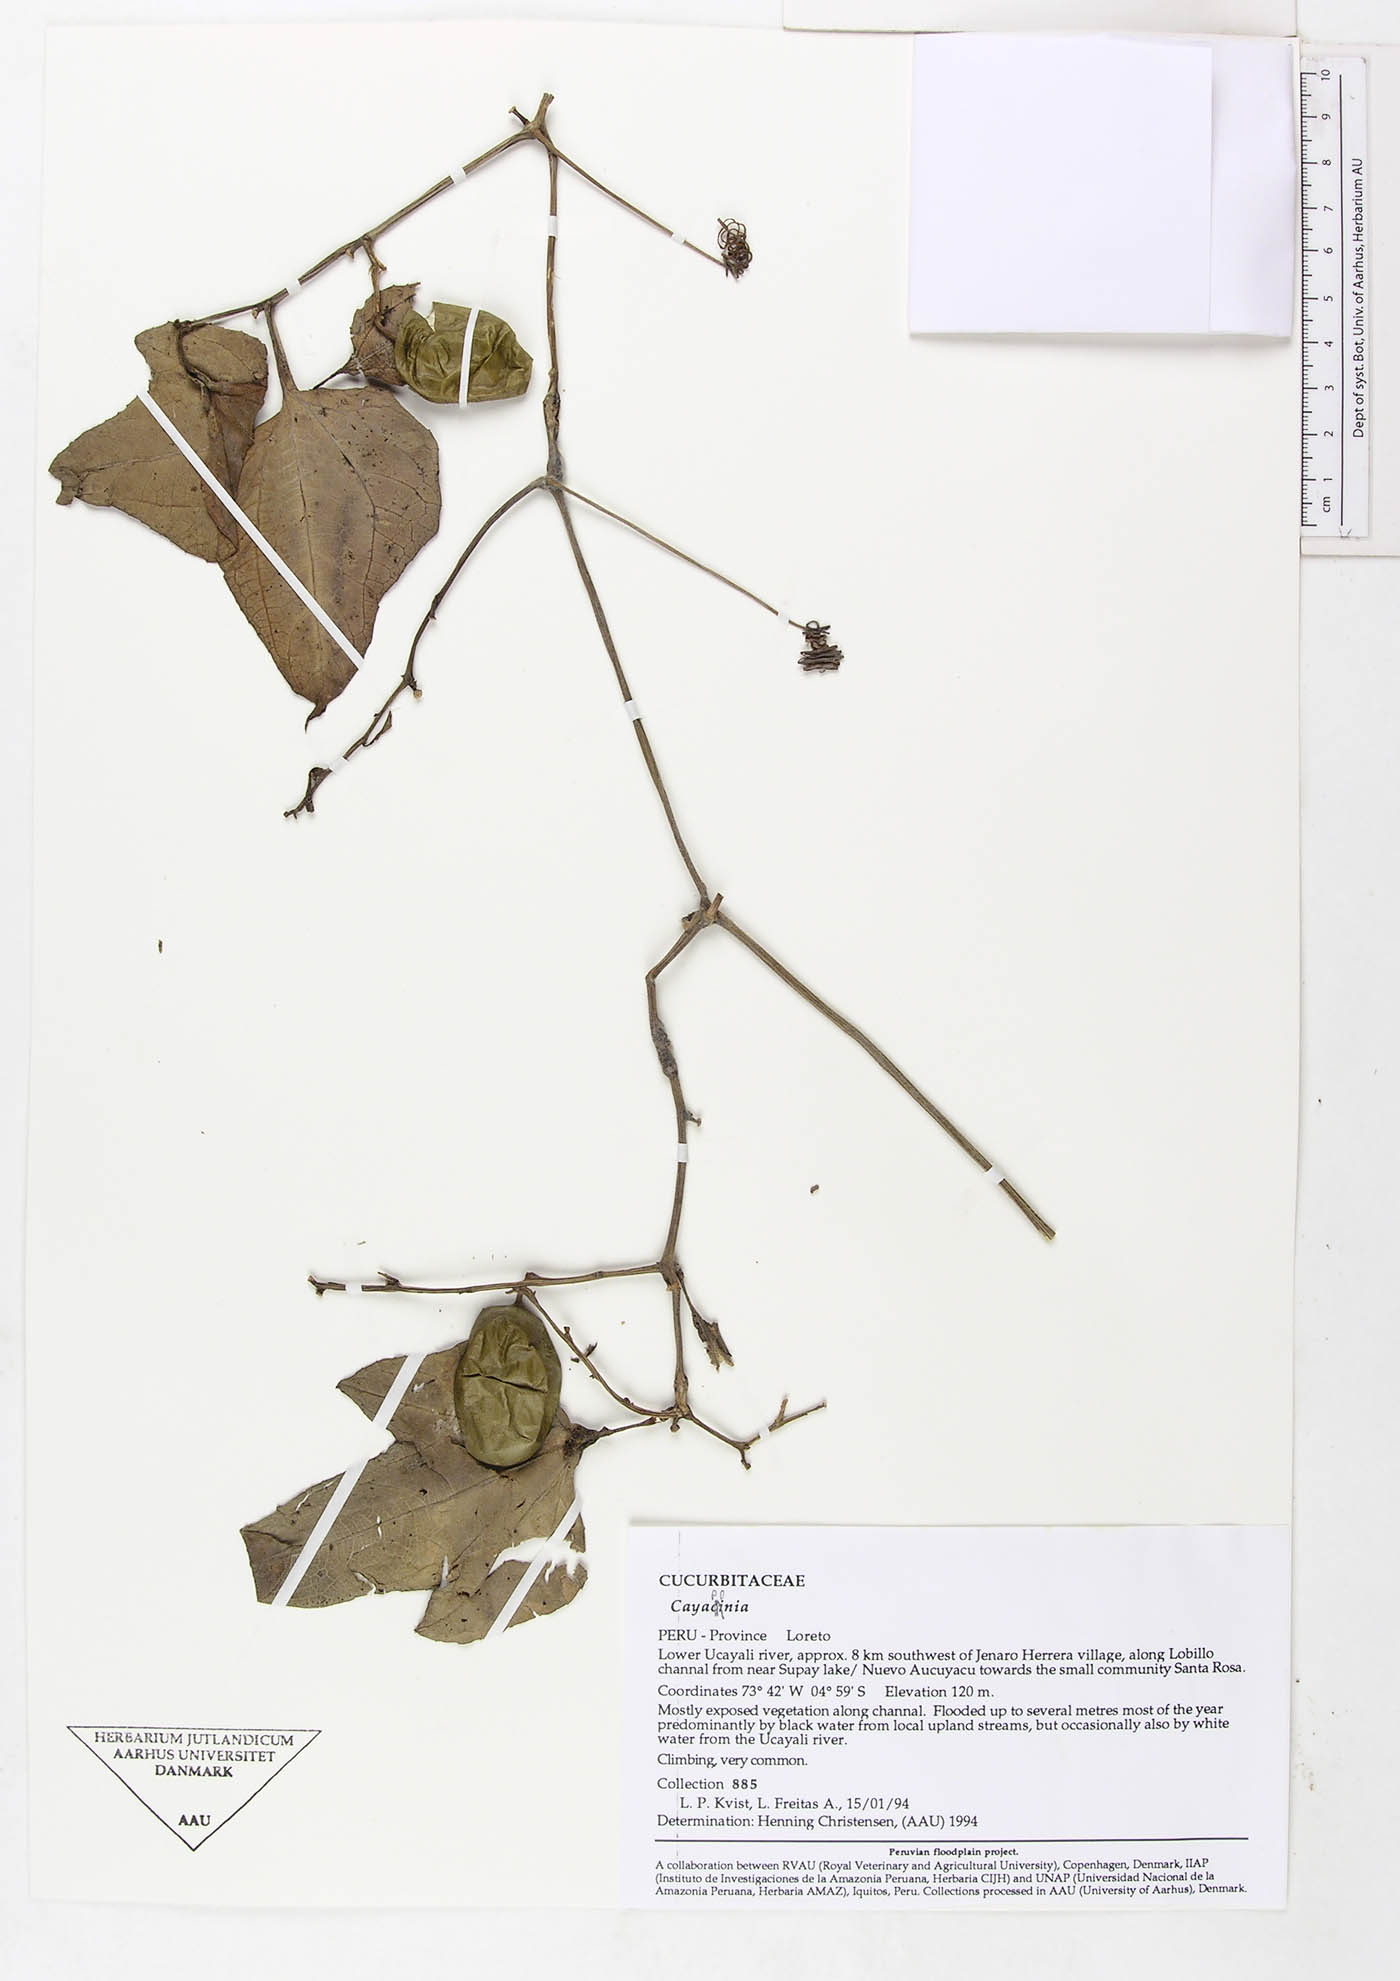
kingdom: Plantae
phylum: Tracheophyta
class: Magnoliopsida
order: Cucurbitales
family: Cucurbitaceae
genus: Cayaponia
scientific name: Cayaponia crugeri
